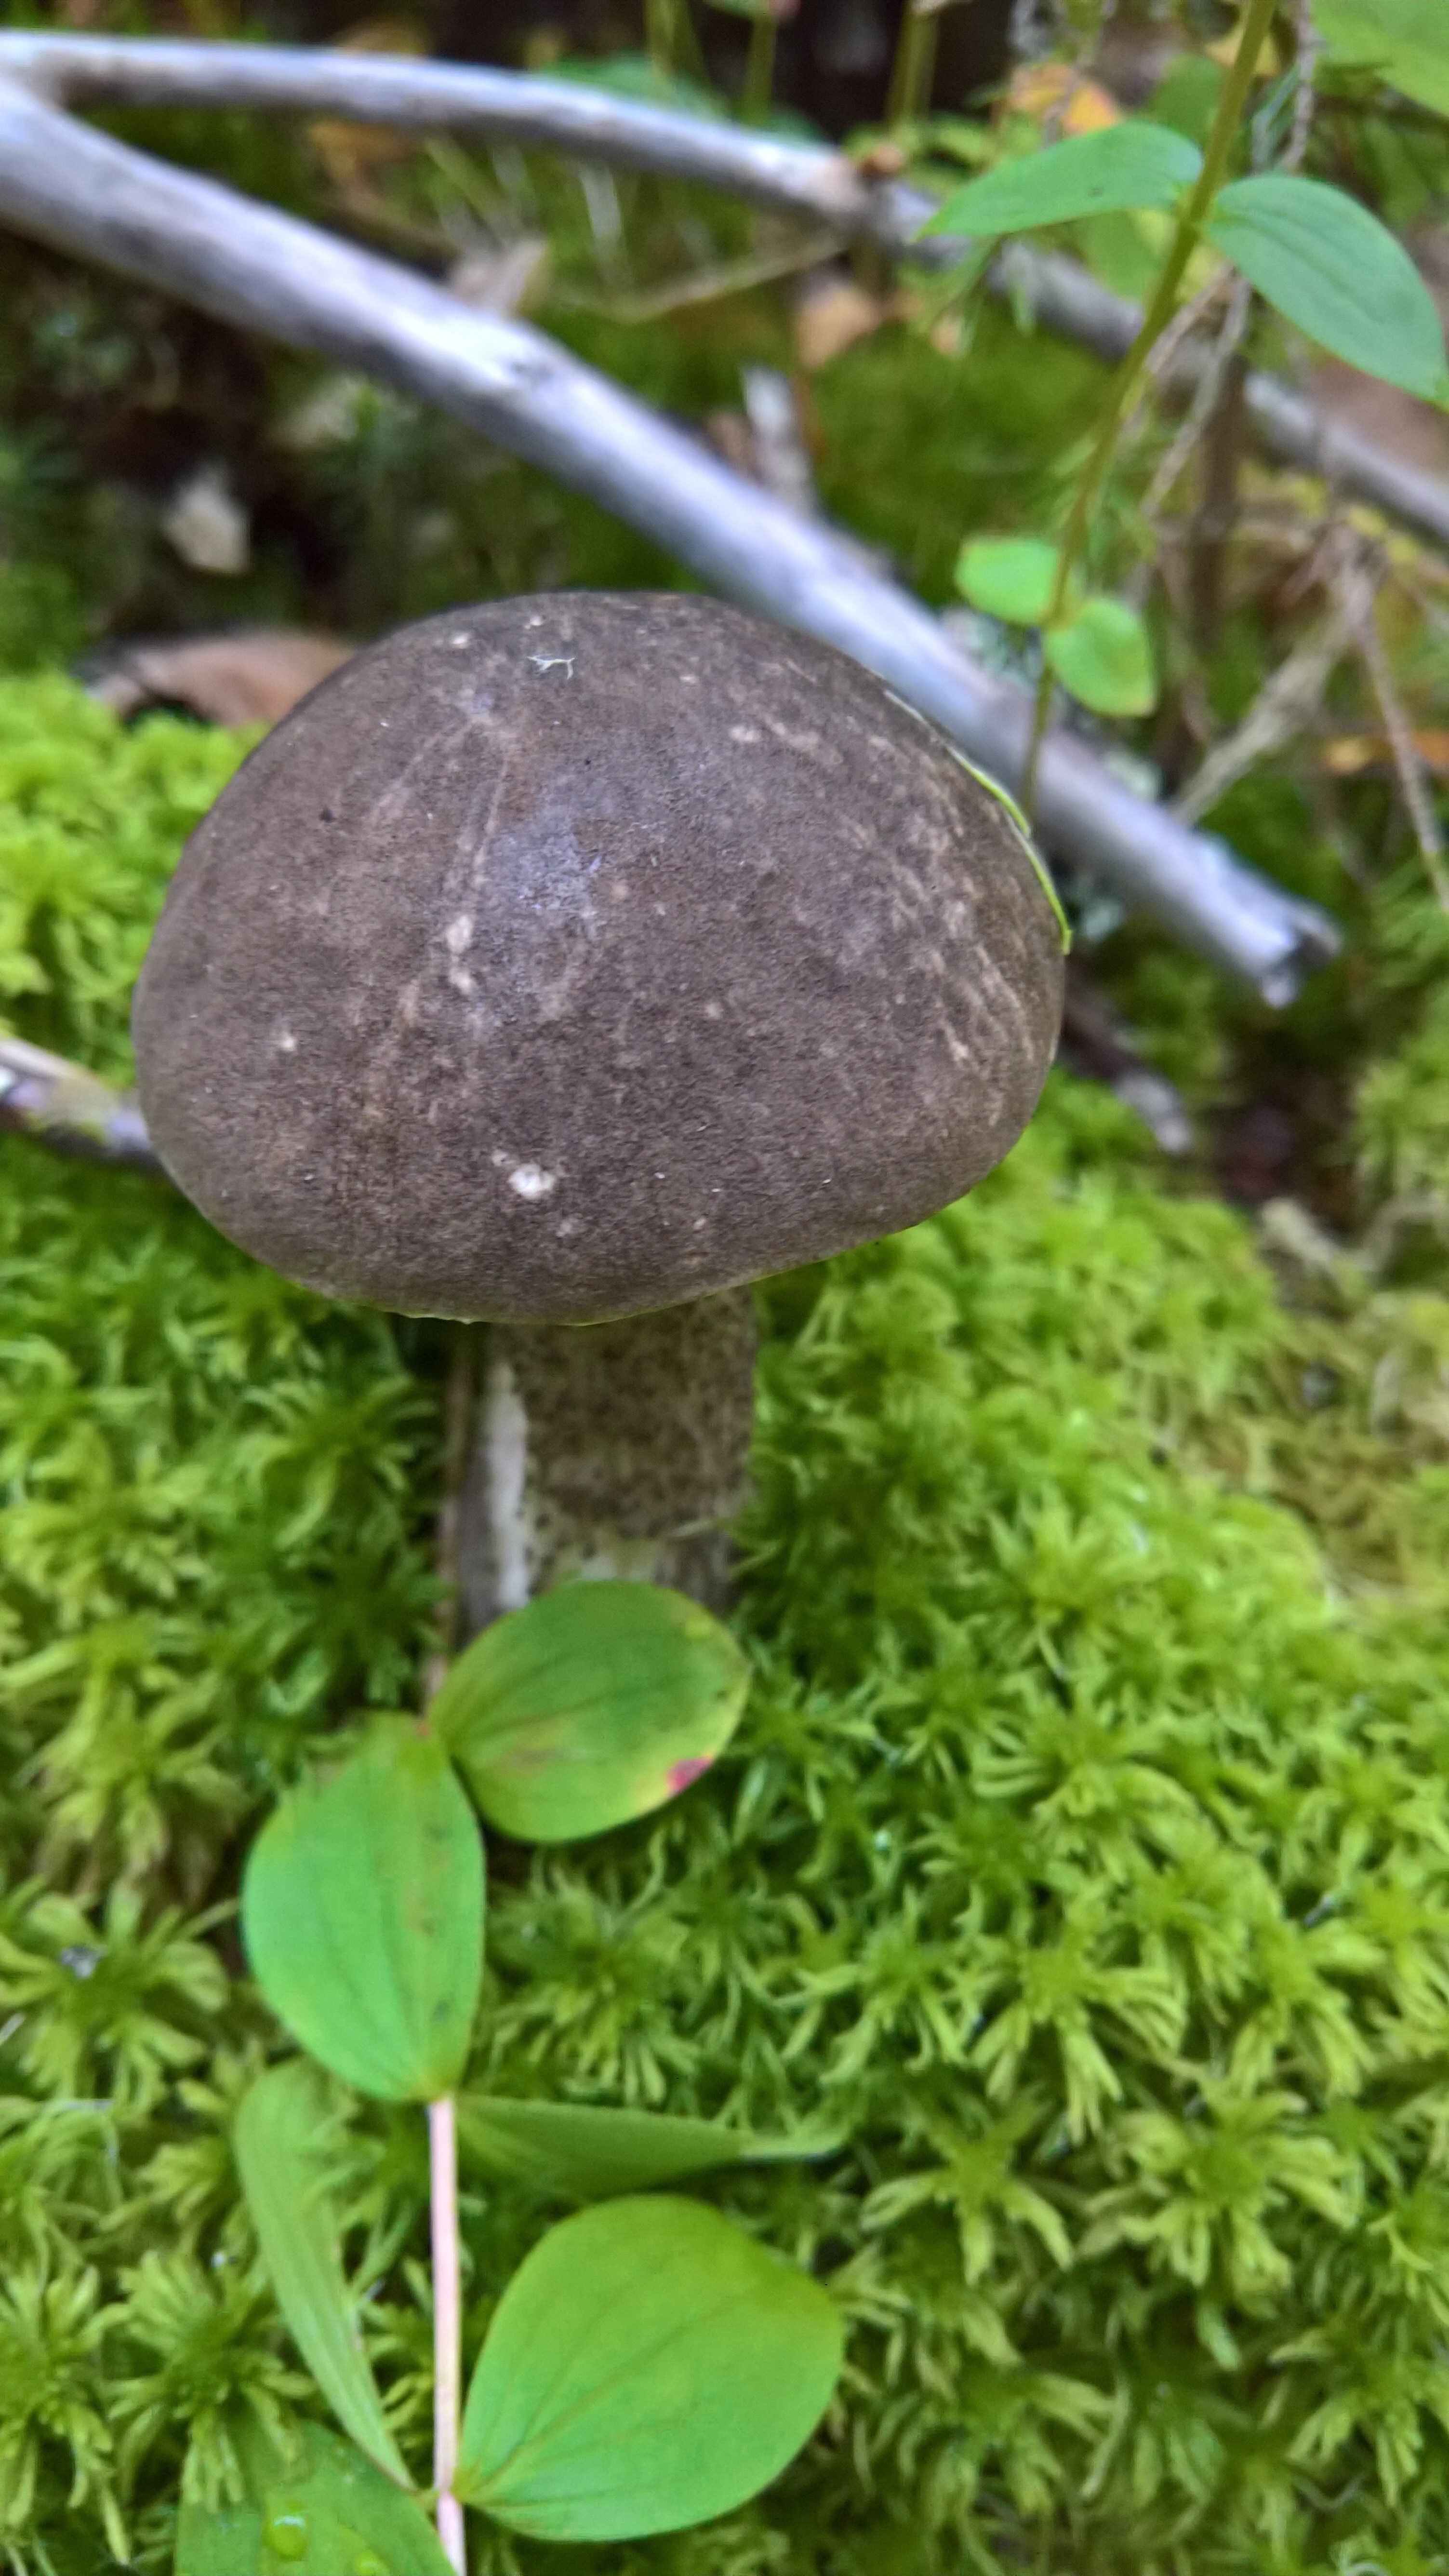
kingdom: Fungi
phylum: Basidiomycota
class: Agaricomycetes
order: Boletales
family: Boletaceae
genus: Leccinum
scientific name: Leccinum variicolor
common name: Mottled bolete
